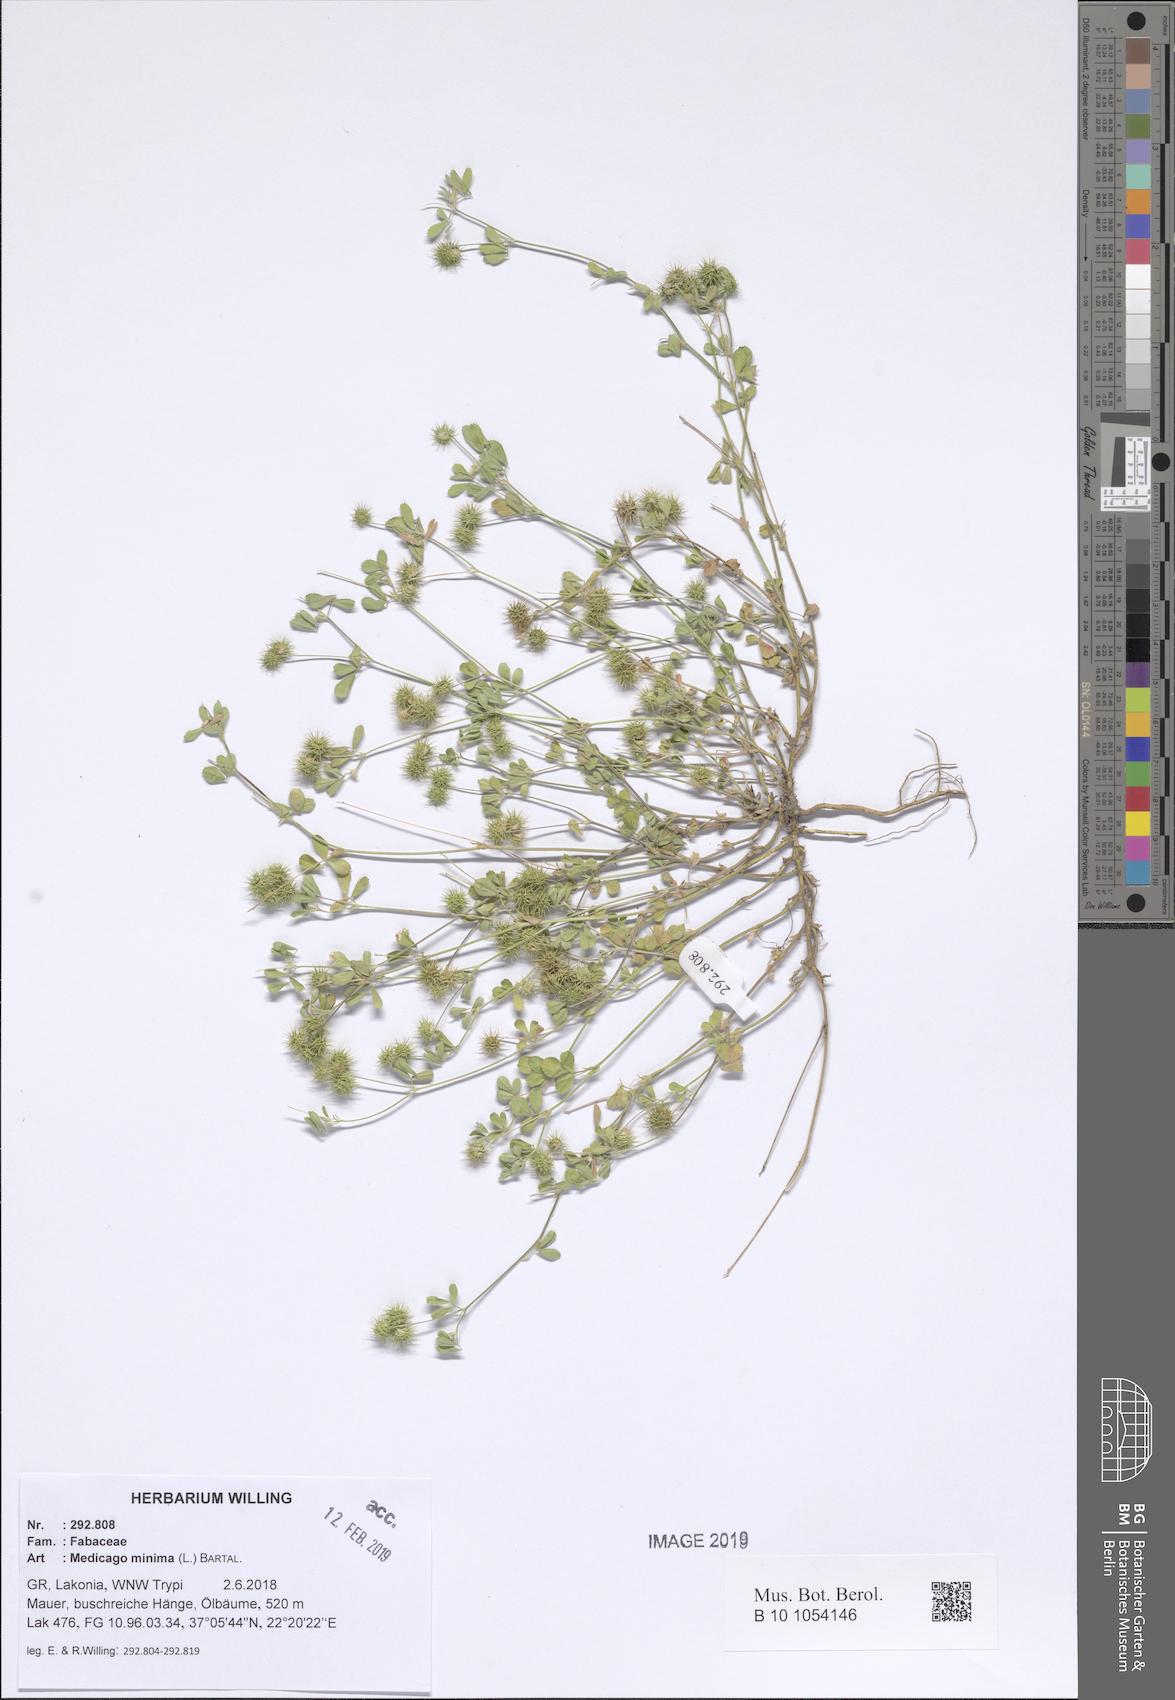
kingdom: Plantae
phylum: Tracheophyta
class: Magnoliopsida
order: Fabales
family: Fabaceae
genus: Medicago
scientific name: Medicago minima
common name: Little bur-clover
